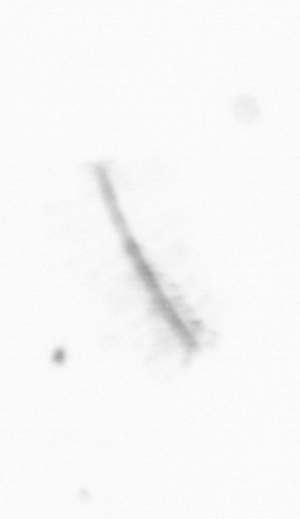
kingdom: Chromista
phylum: Ochrophyta
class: Bacillariophyceae
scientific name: Bacillariophyceae
